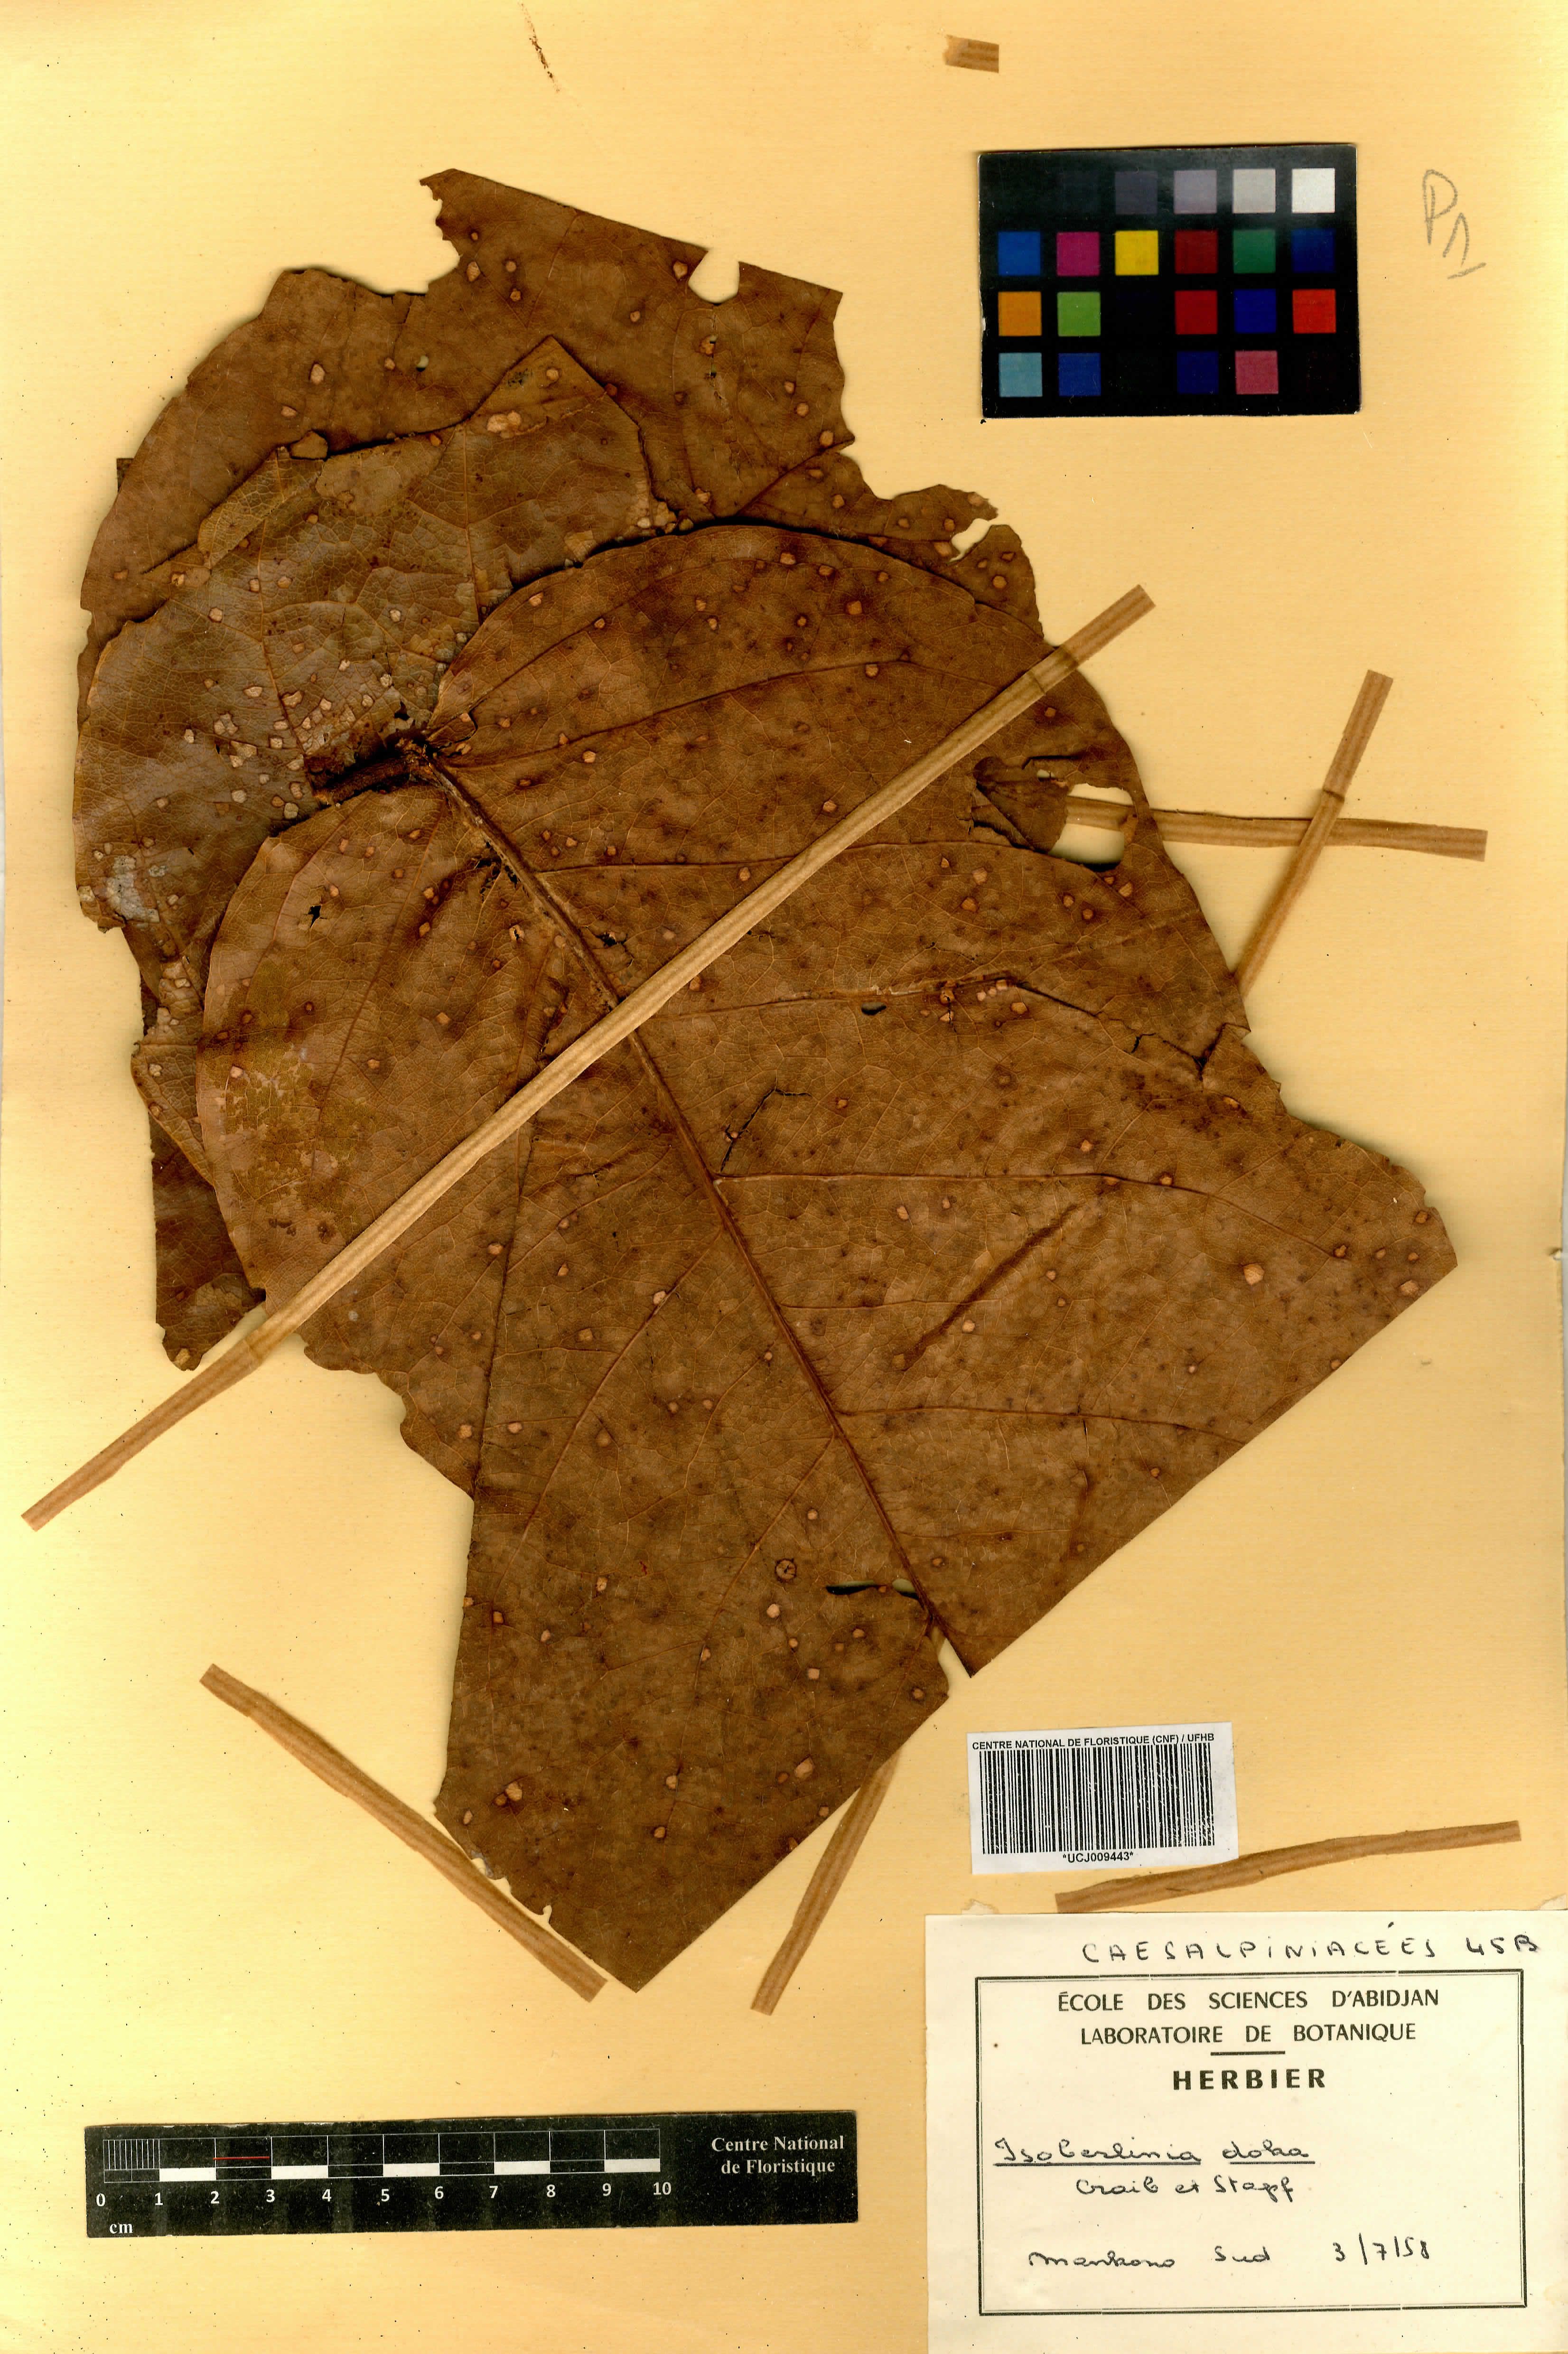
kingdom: Plantae
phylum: Tracheophyta
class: Magnoliopsida
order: Fabales
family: Fabaceae
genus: Isoberlinia
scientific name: Isoberlinia doka
